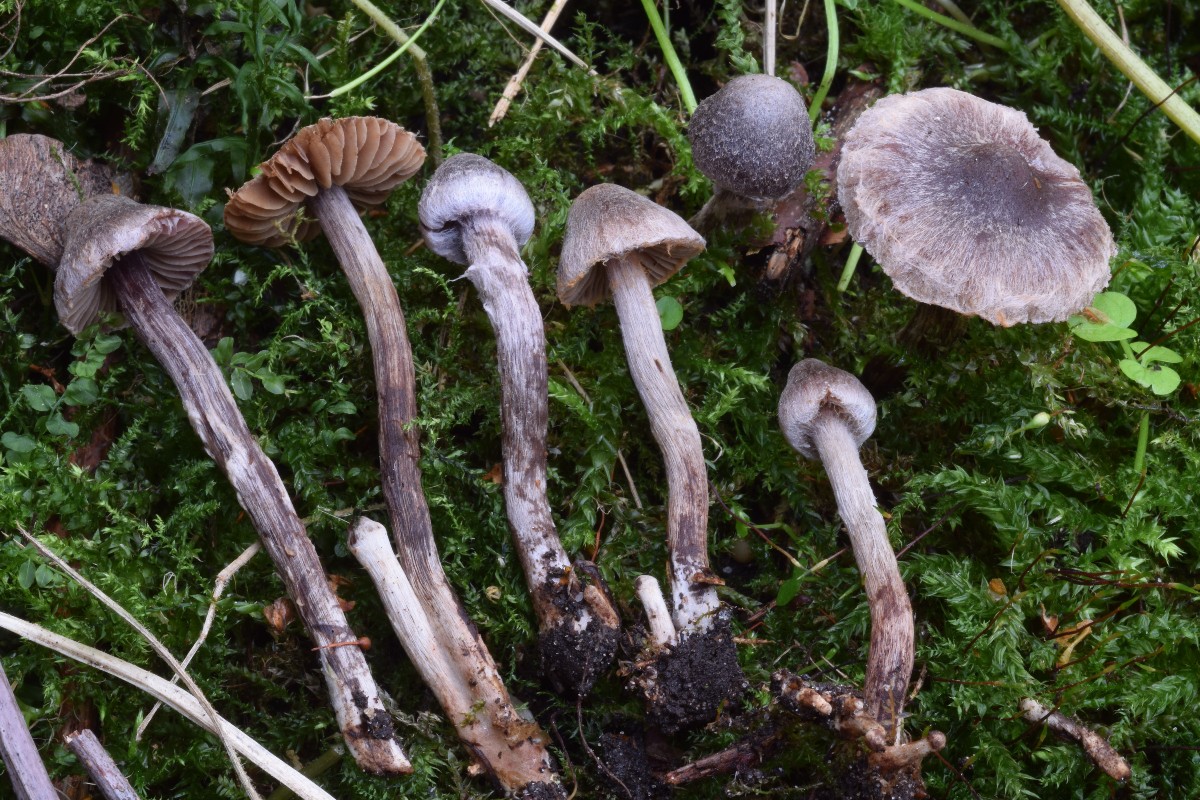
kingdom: Fungi
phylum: Basidiomycota
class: Agaricomycetes
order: Agaricales
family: Cortinariaceae
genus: Cortinarius
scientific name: Cortinarius griseocarneus
